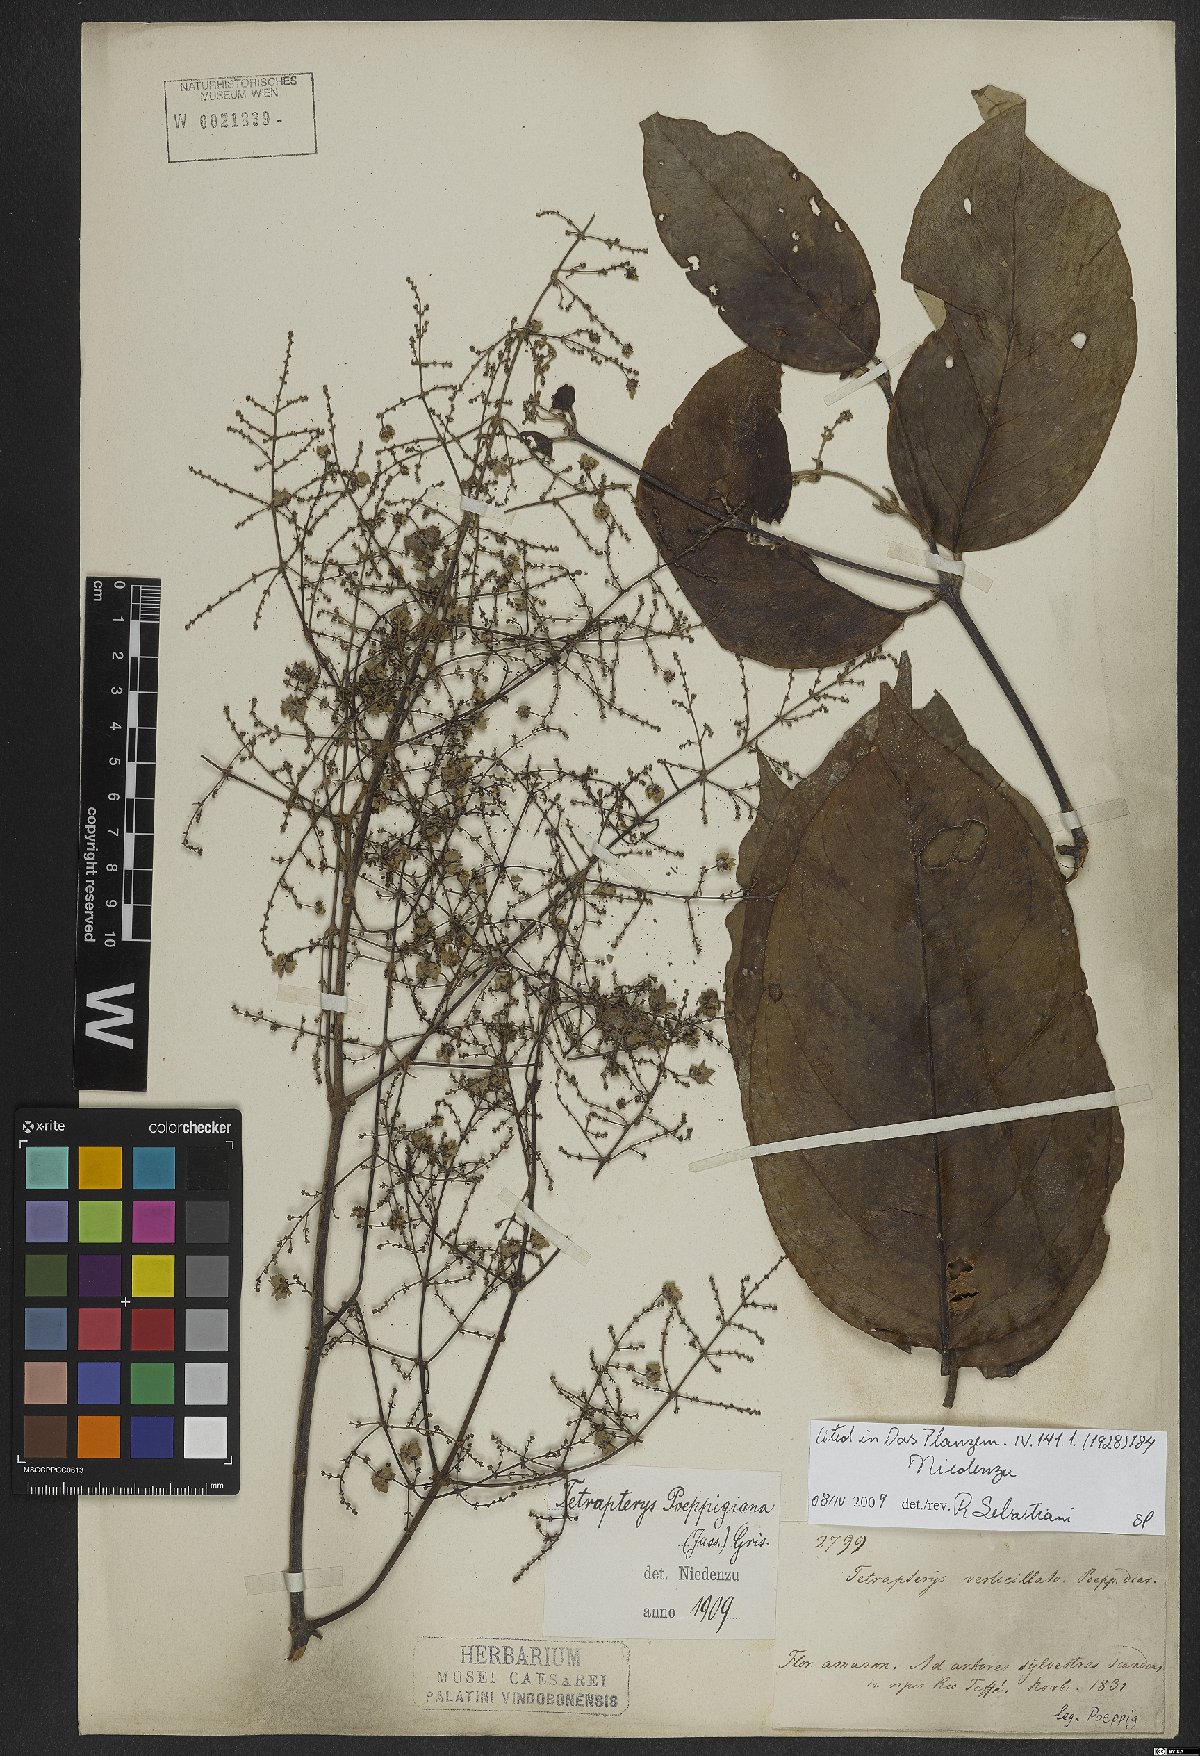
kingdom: Plantae
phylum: Tracheophyta
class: Magnoliopsida
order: Malpighiales
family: Malpighiaceae
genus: Niedenzuella
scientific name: Niedenzuella poeppigiana
